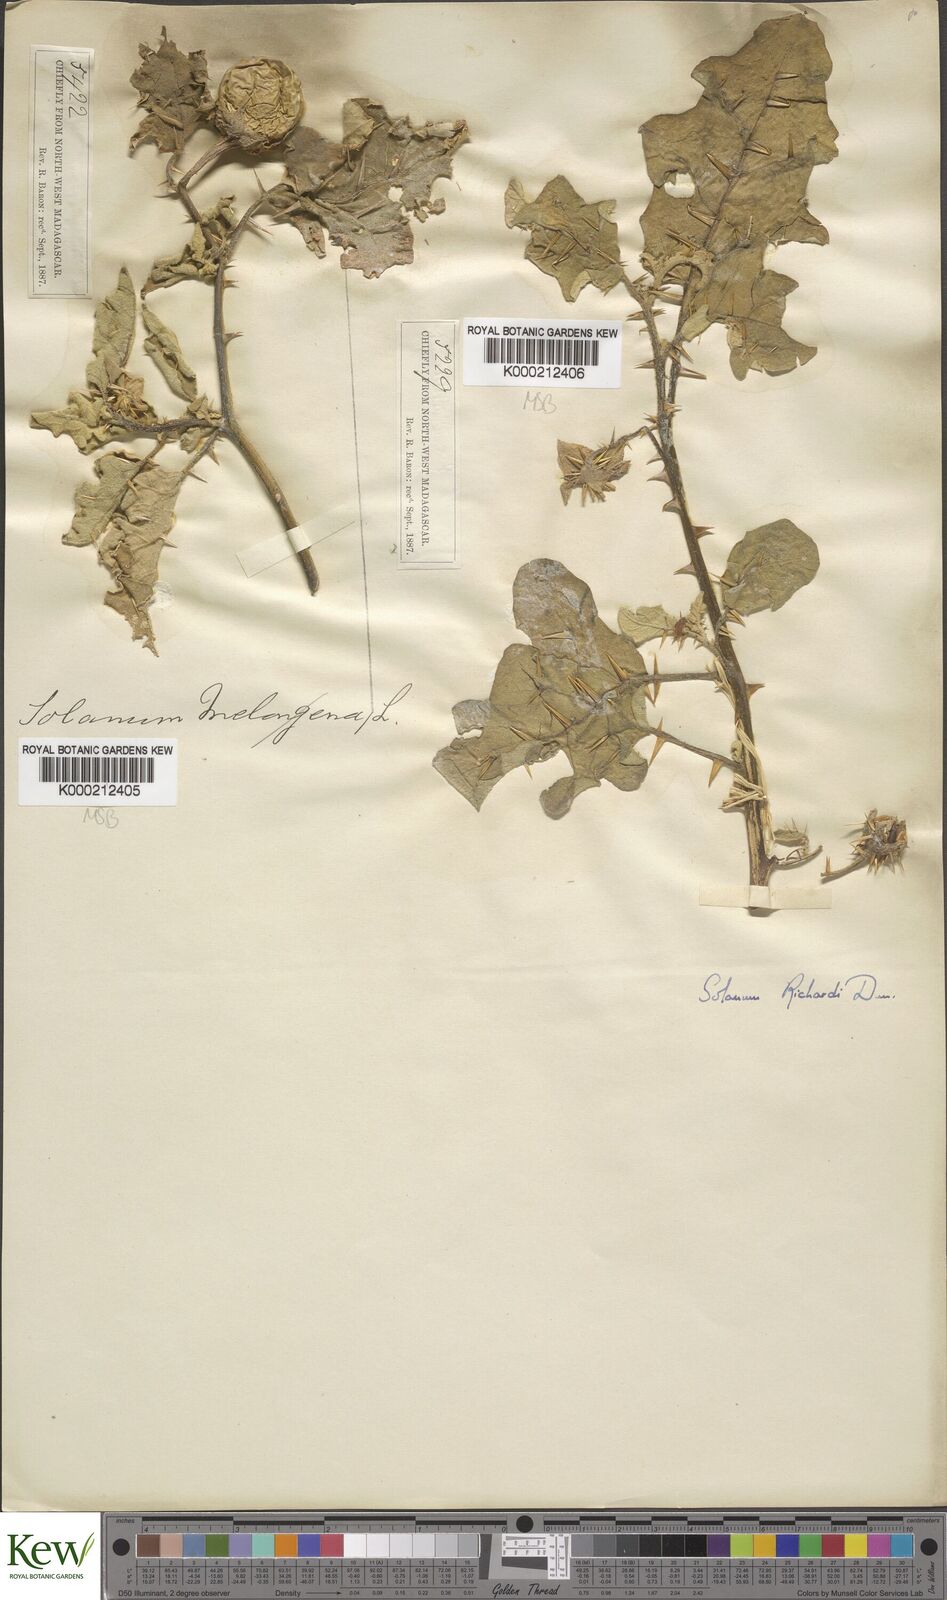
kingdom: Plantae
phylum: Tracheophyta
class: Magnoliopsida
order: Solanales
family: Solanaceae
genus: Solanum
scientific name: Solanum richardii
